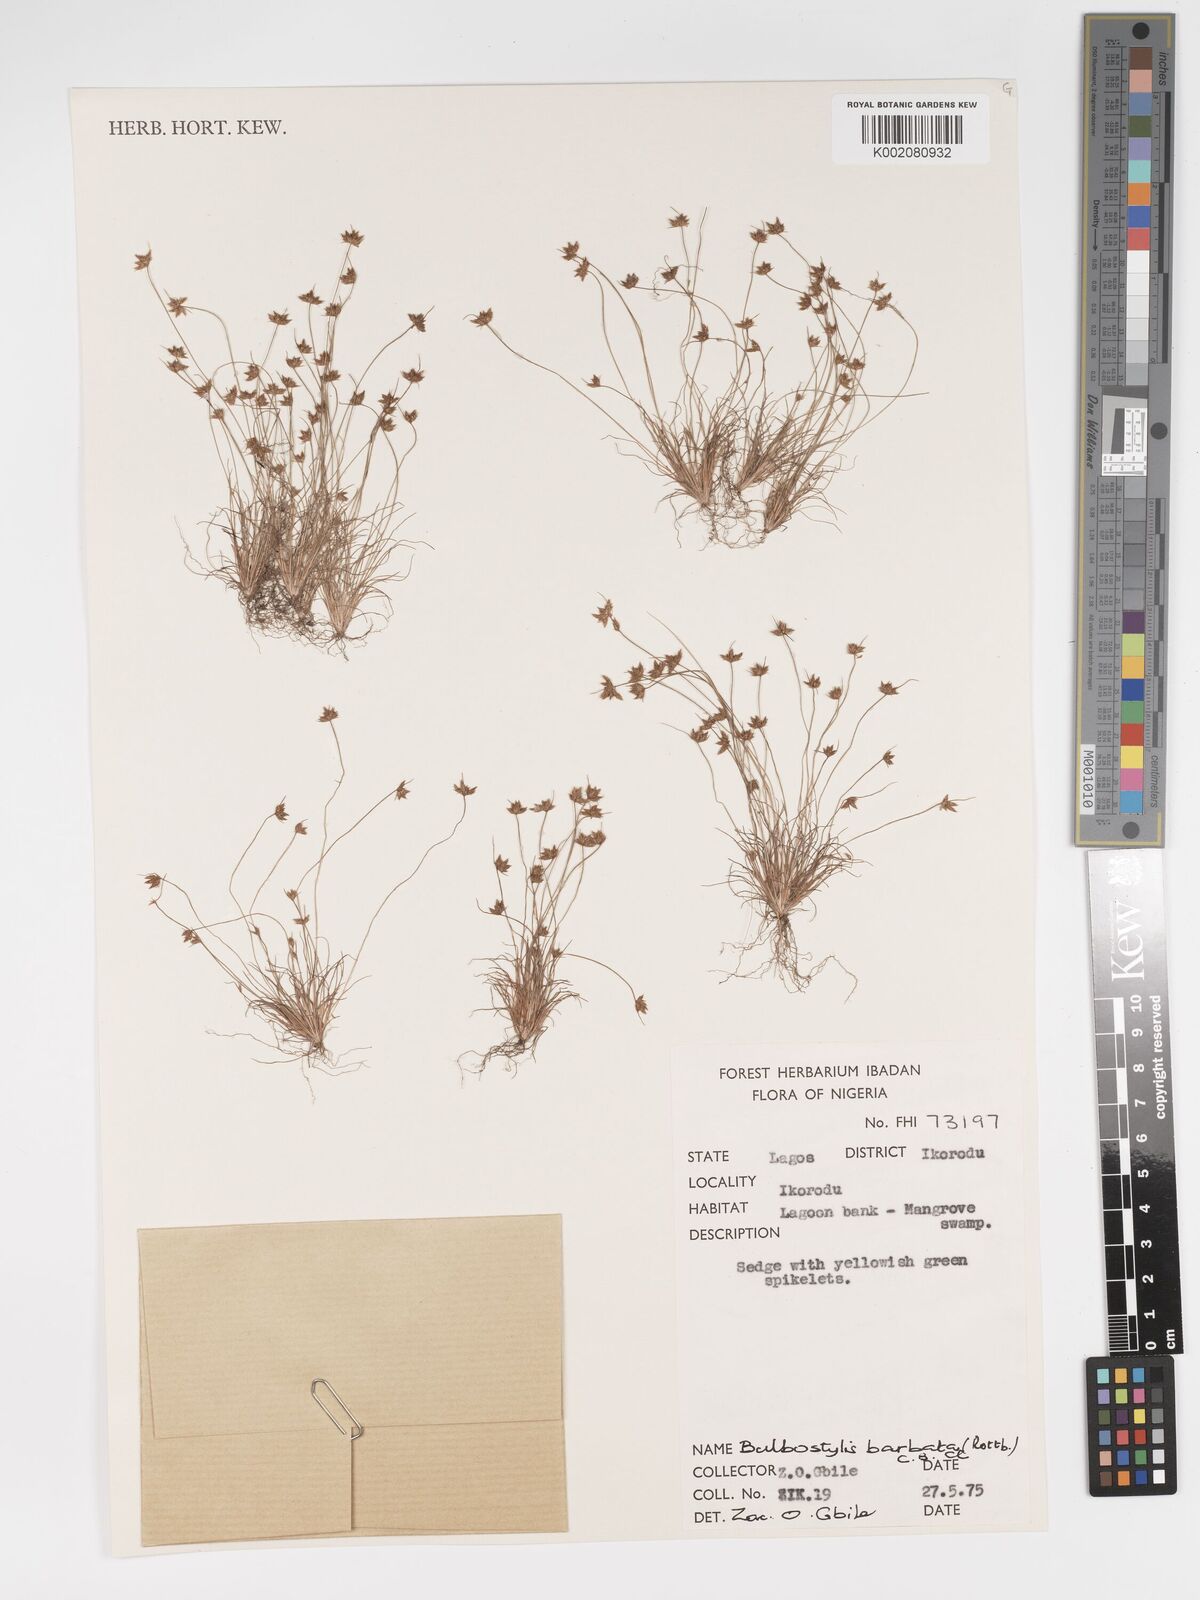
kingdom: Plantae
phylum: Tracheophyta
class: Liliopsida
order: Poales
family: Cyperaceae
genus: Bulbostylis
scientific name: Bulbostylis barbata
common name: Watergrass
